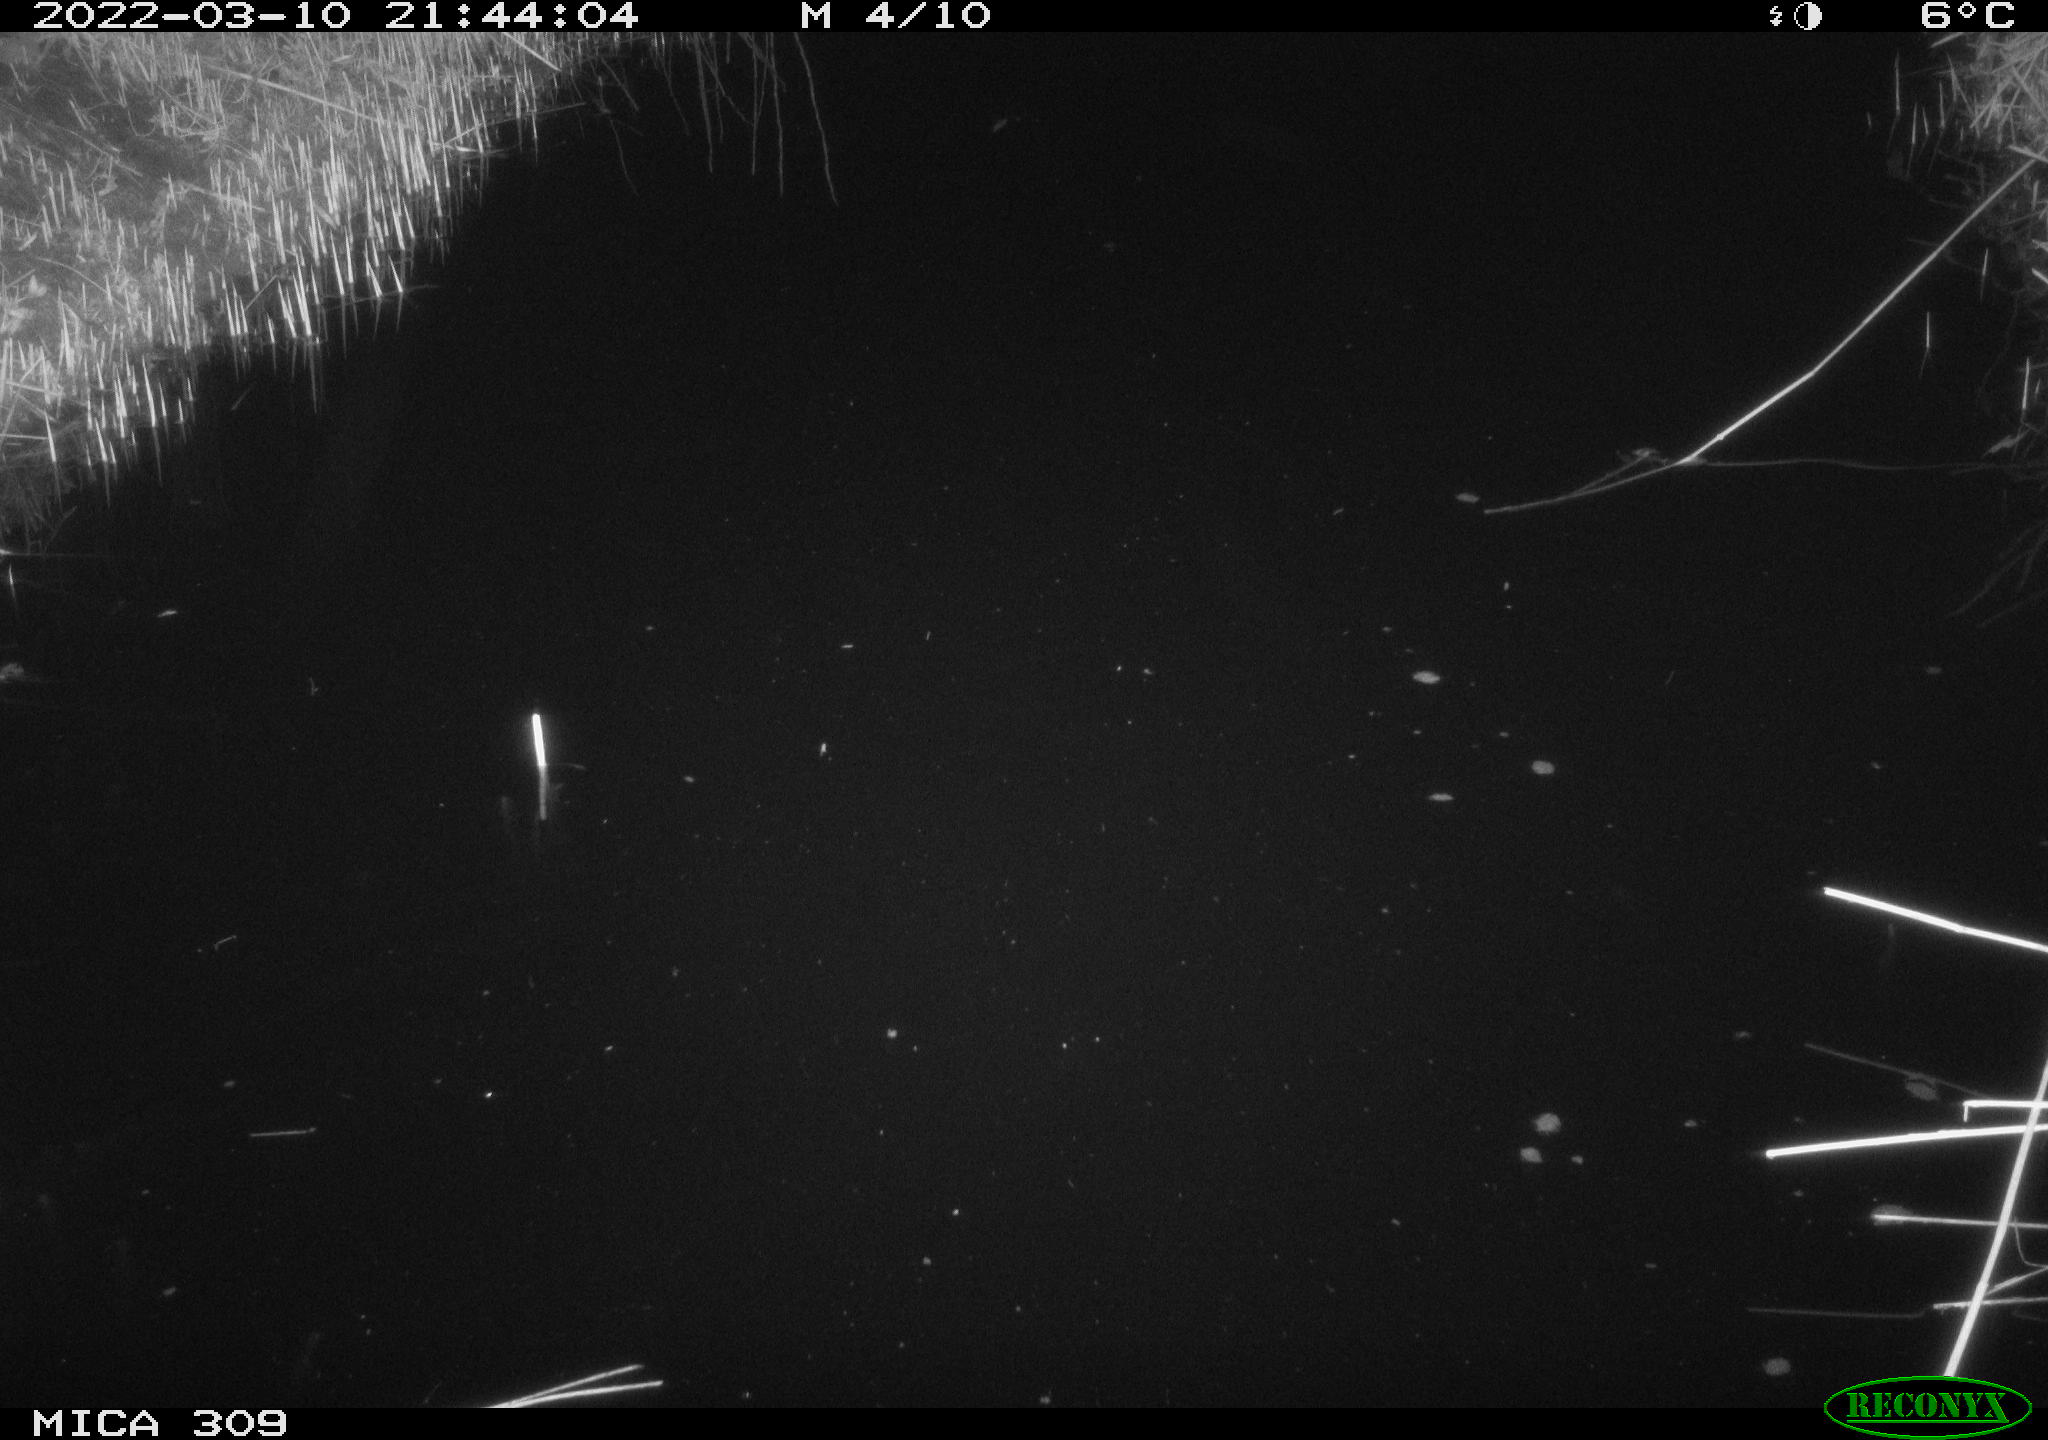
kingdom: Animalia
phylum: Chordata
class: Aves
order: Anseriformes
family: Anatidae
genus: Anas
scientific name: Anas platyrhynchos
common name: Mallard
